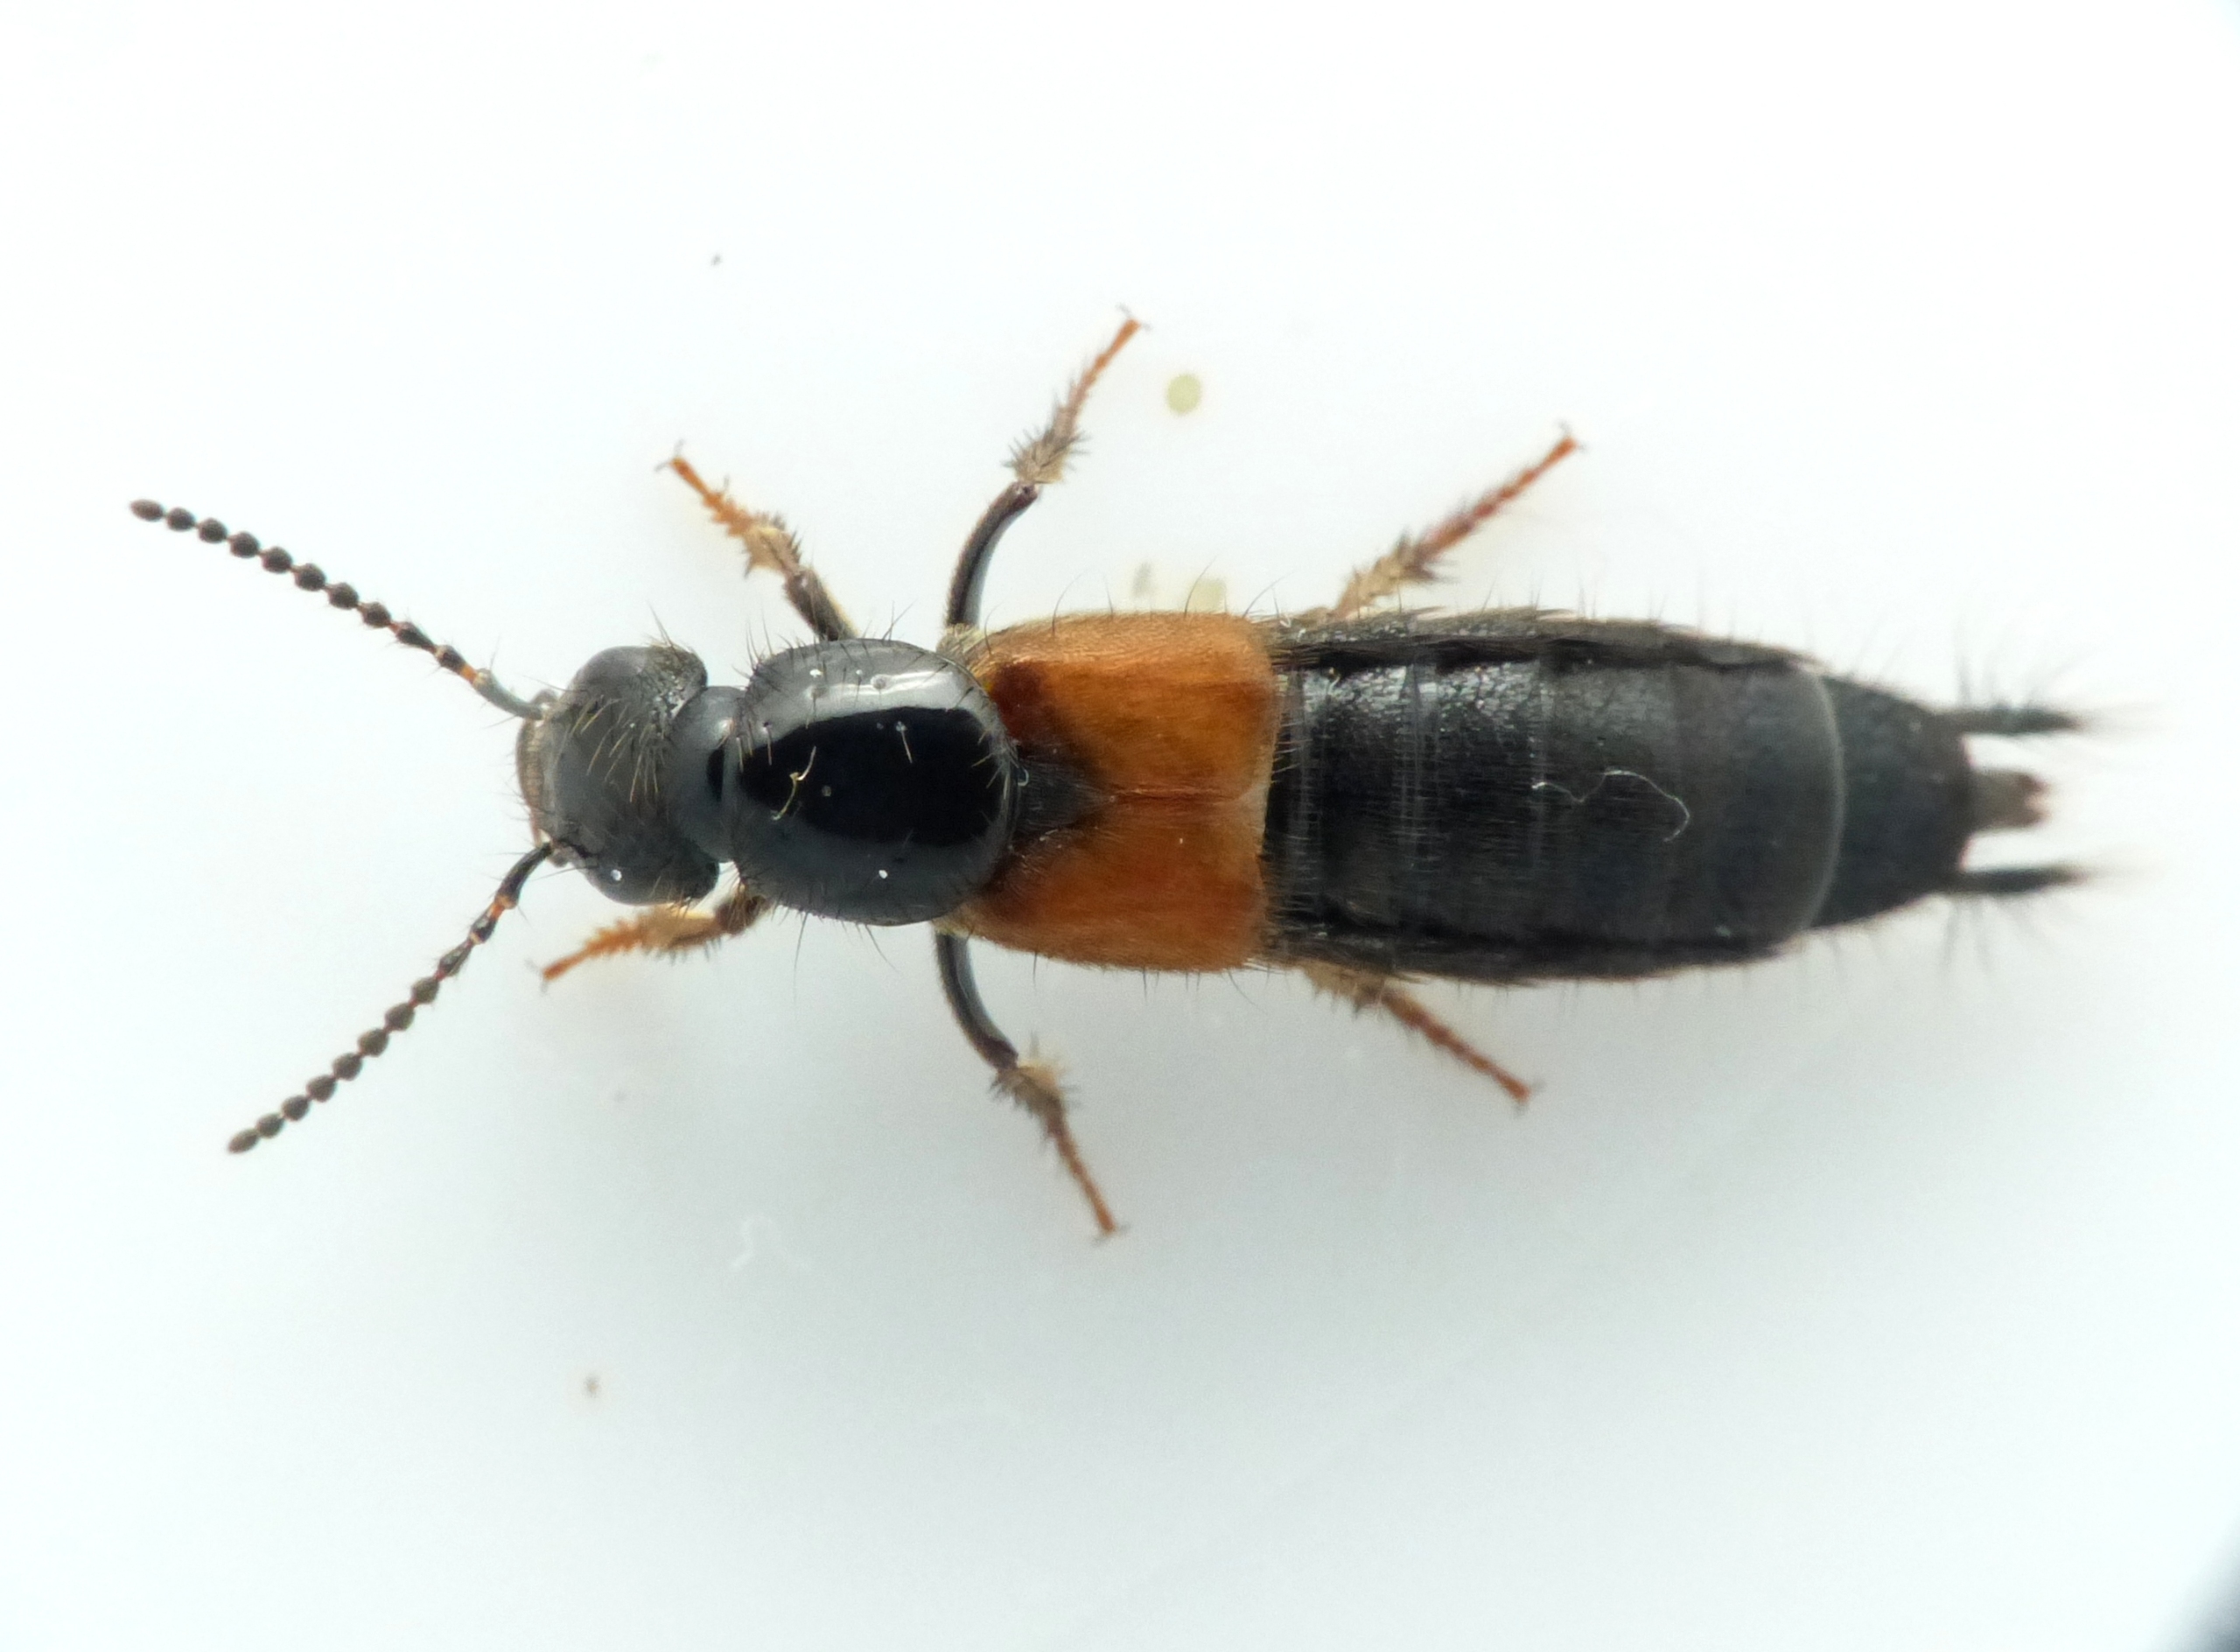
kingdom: Animalia
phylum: Arthropoda
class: Insecta
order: Coleoptera
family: Staphylinidae
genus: Philonthus
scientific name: Philonthus spinipes
